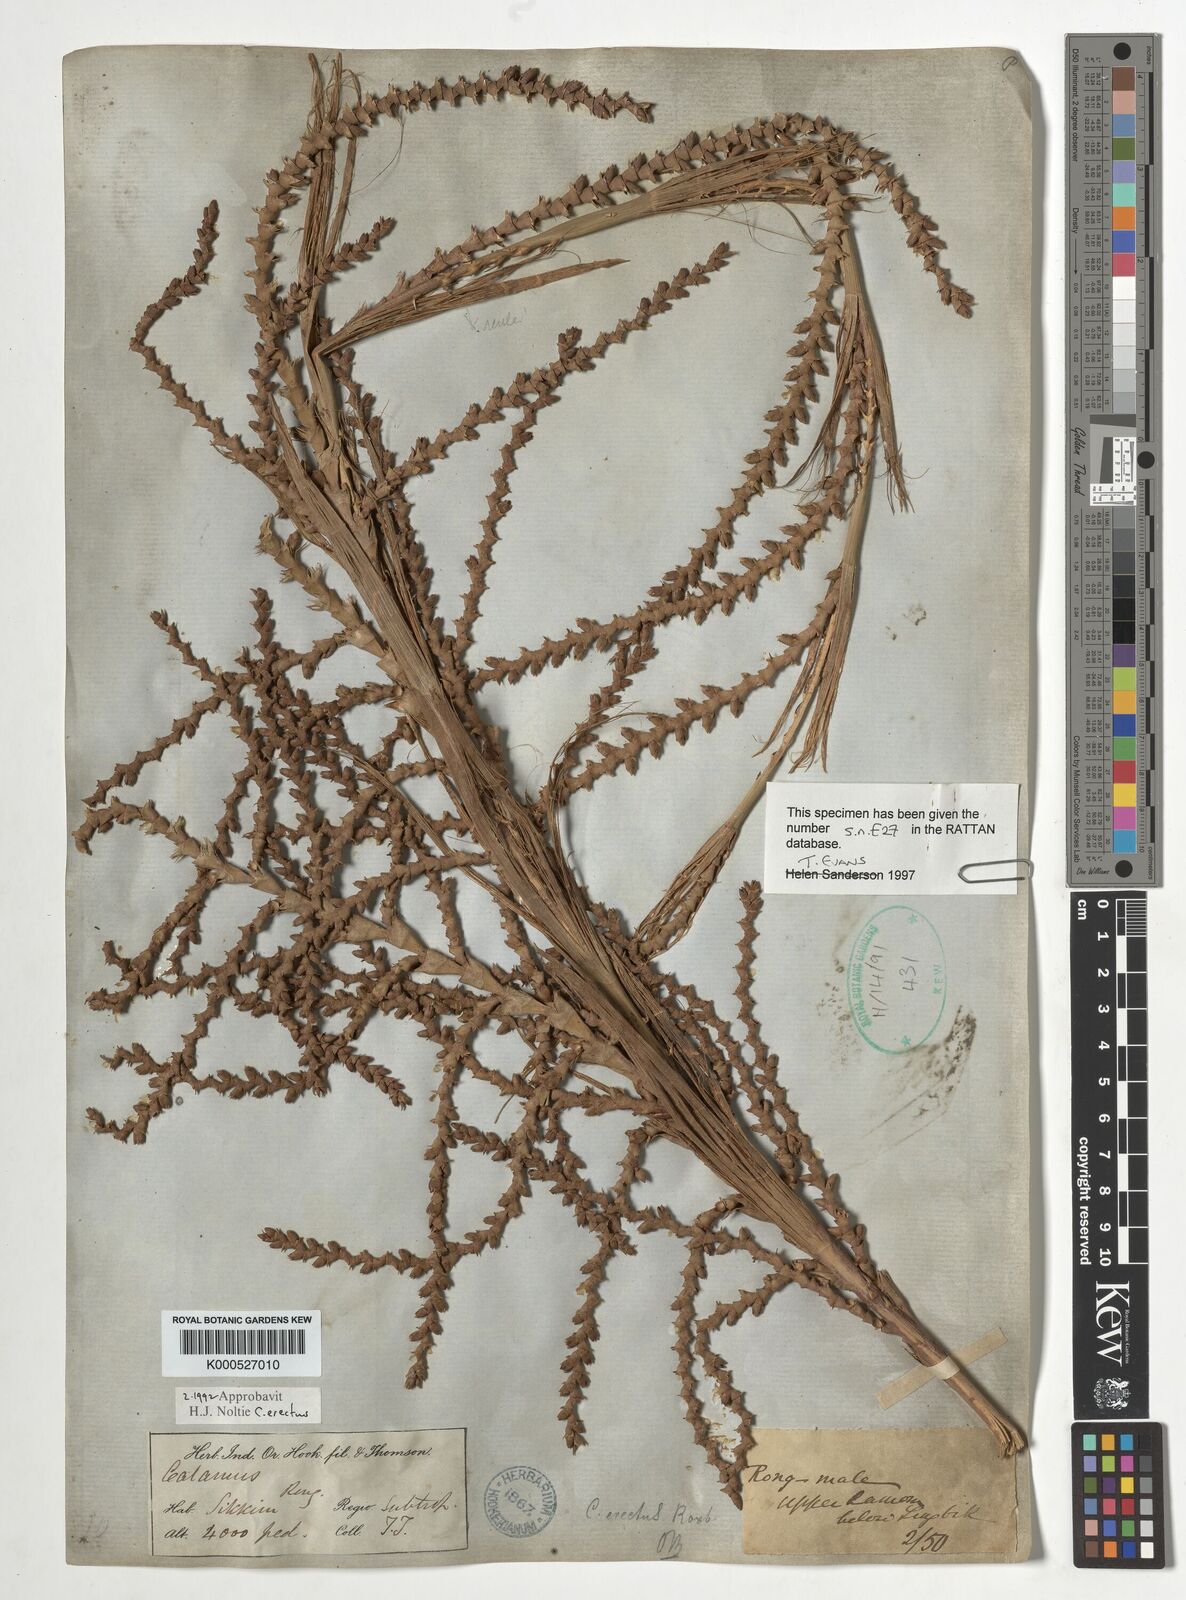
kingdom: Plantae
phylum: Tracheophyta
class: Liliopsida
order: Arecales
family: Arecaceae
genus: Calamus
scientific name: Calamus erectus
